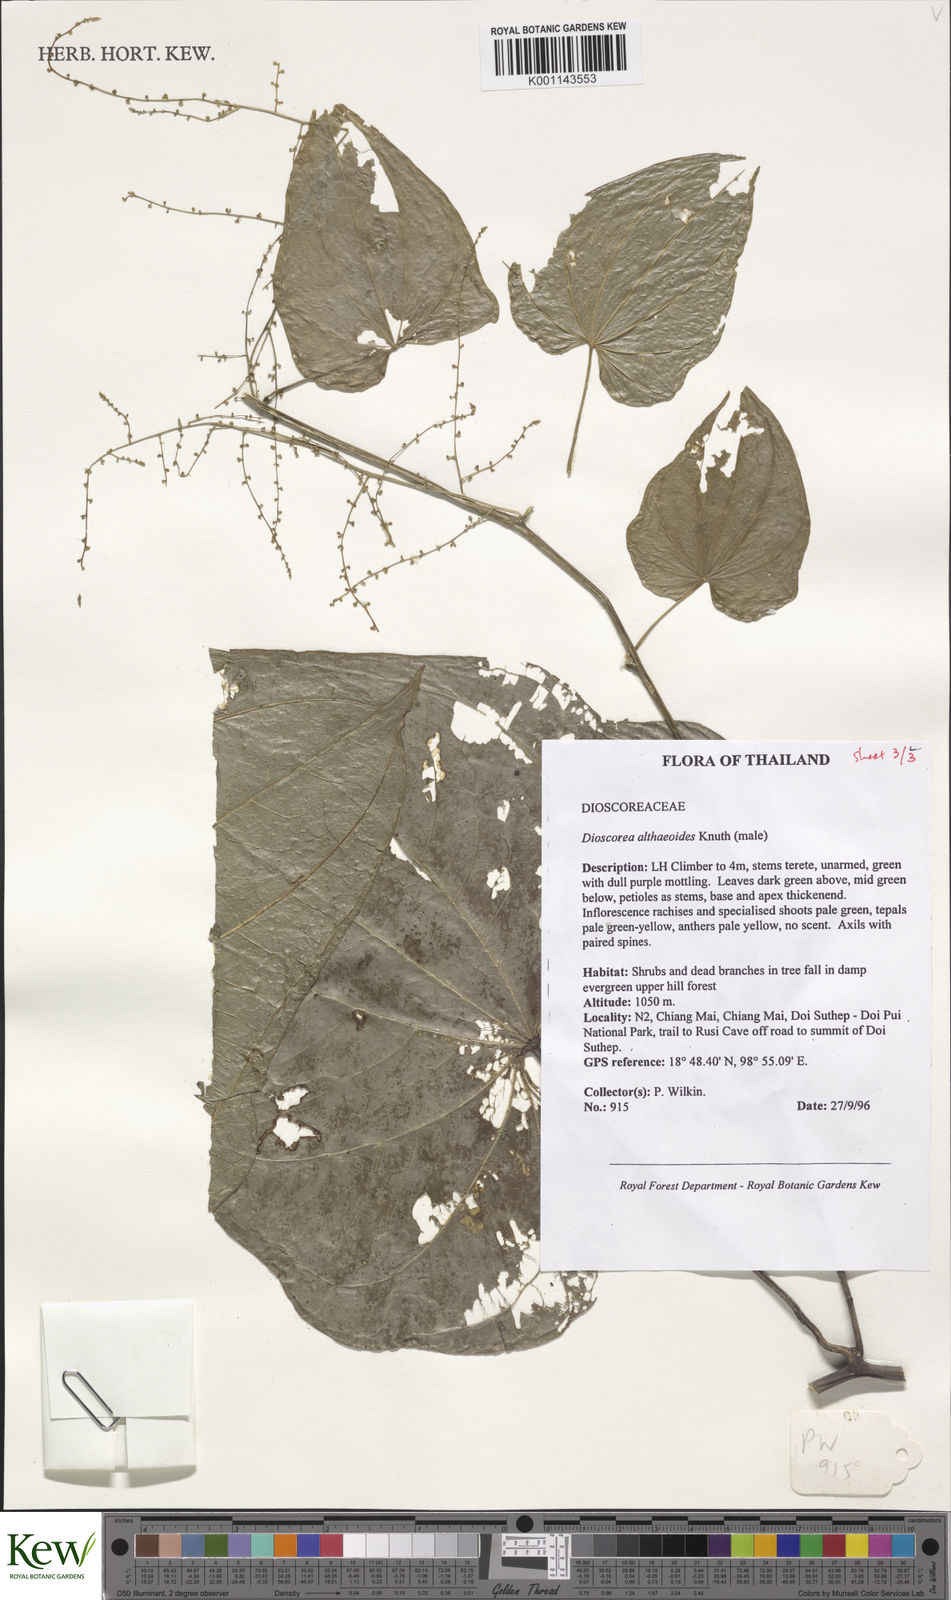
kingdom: Plantae
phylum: Tracheophyta
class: Liliopsida
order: Dioscoreales
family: Dioscoreaceae
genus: Dioscorea
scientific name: Dioscorea rockii
